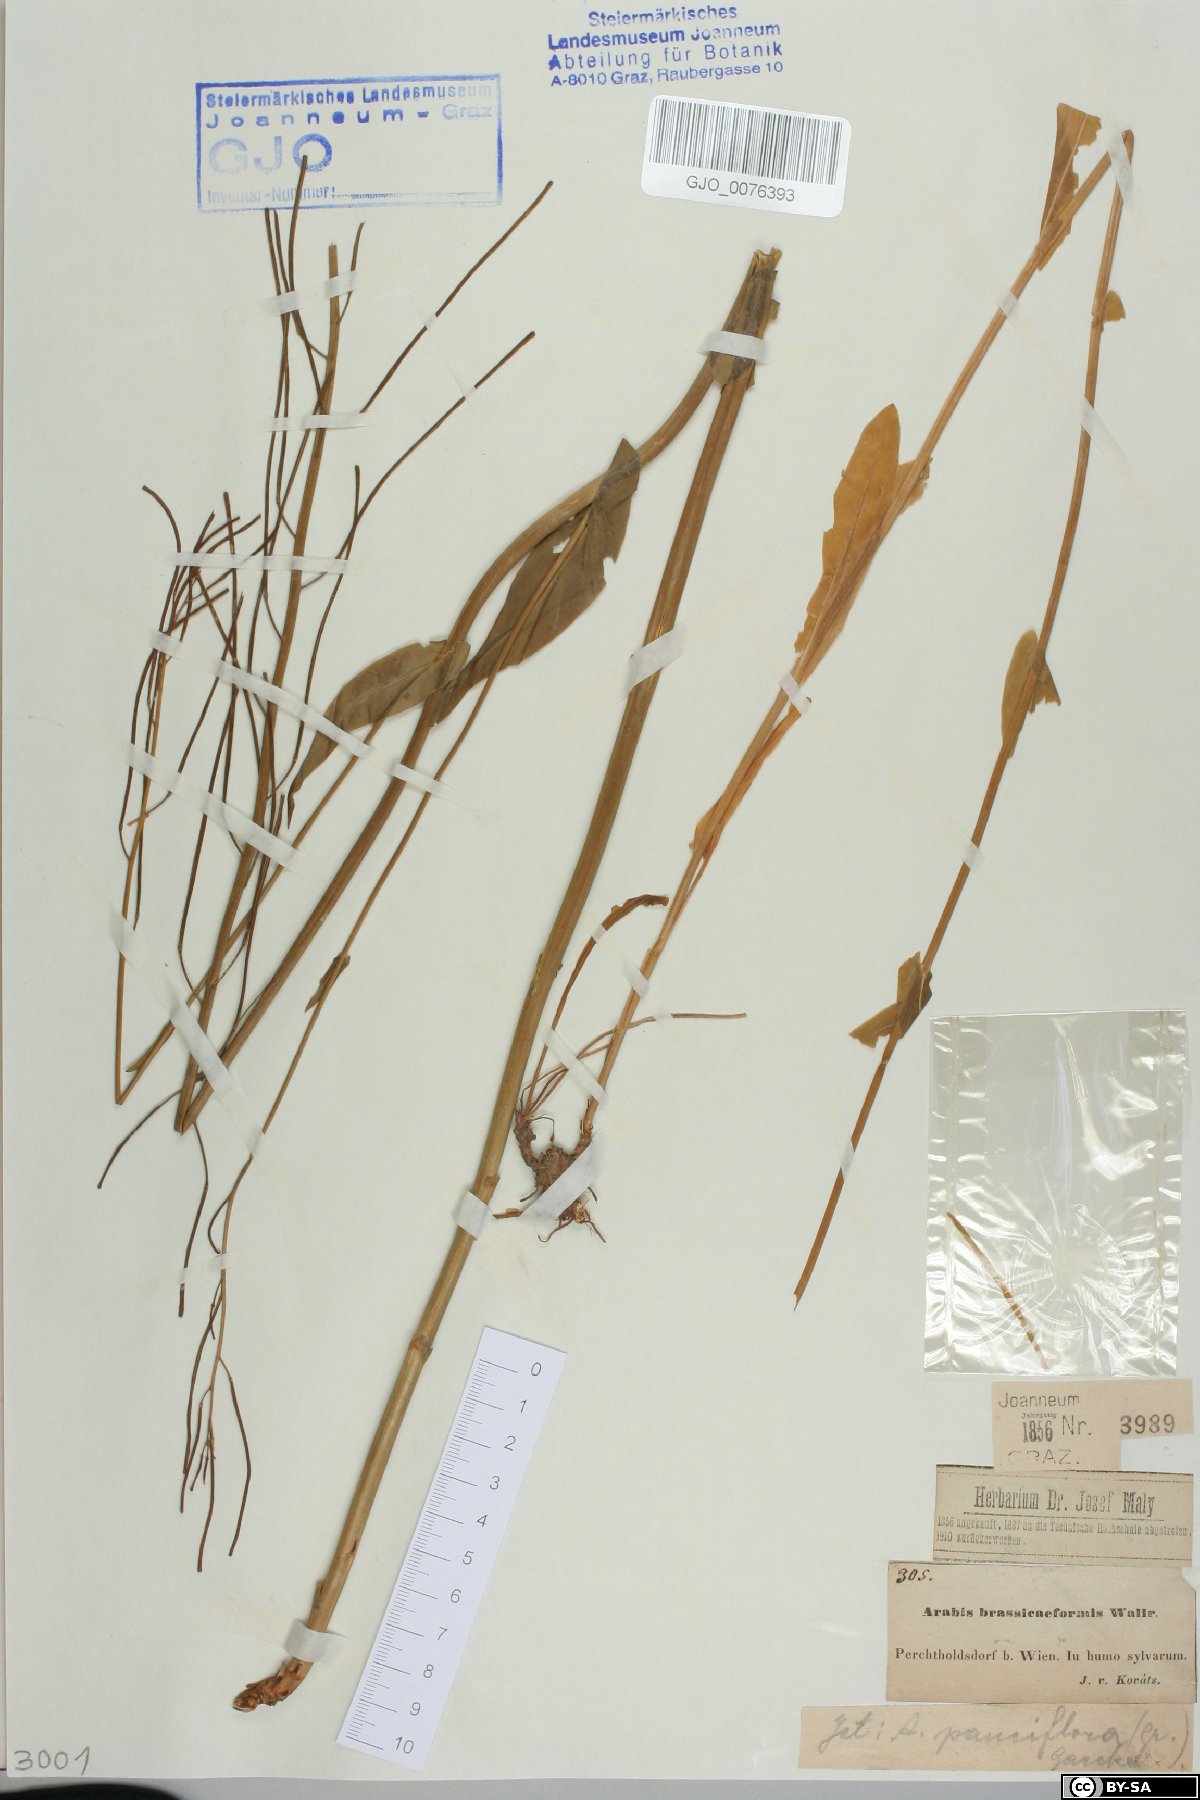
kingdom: Plantae
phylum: Tracheophyta
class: Magnoliopsida
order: Brassicales
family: Brassicaceae
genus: Fourraea
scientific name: Fourraea alpina
